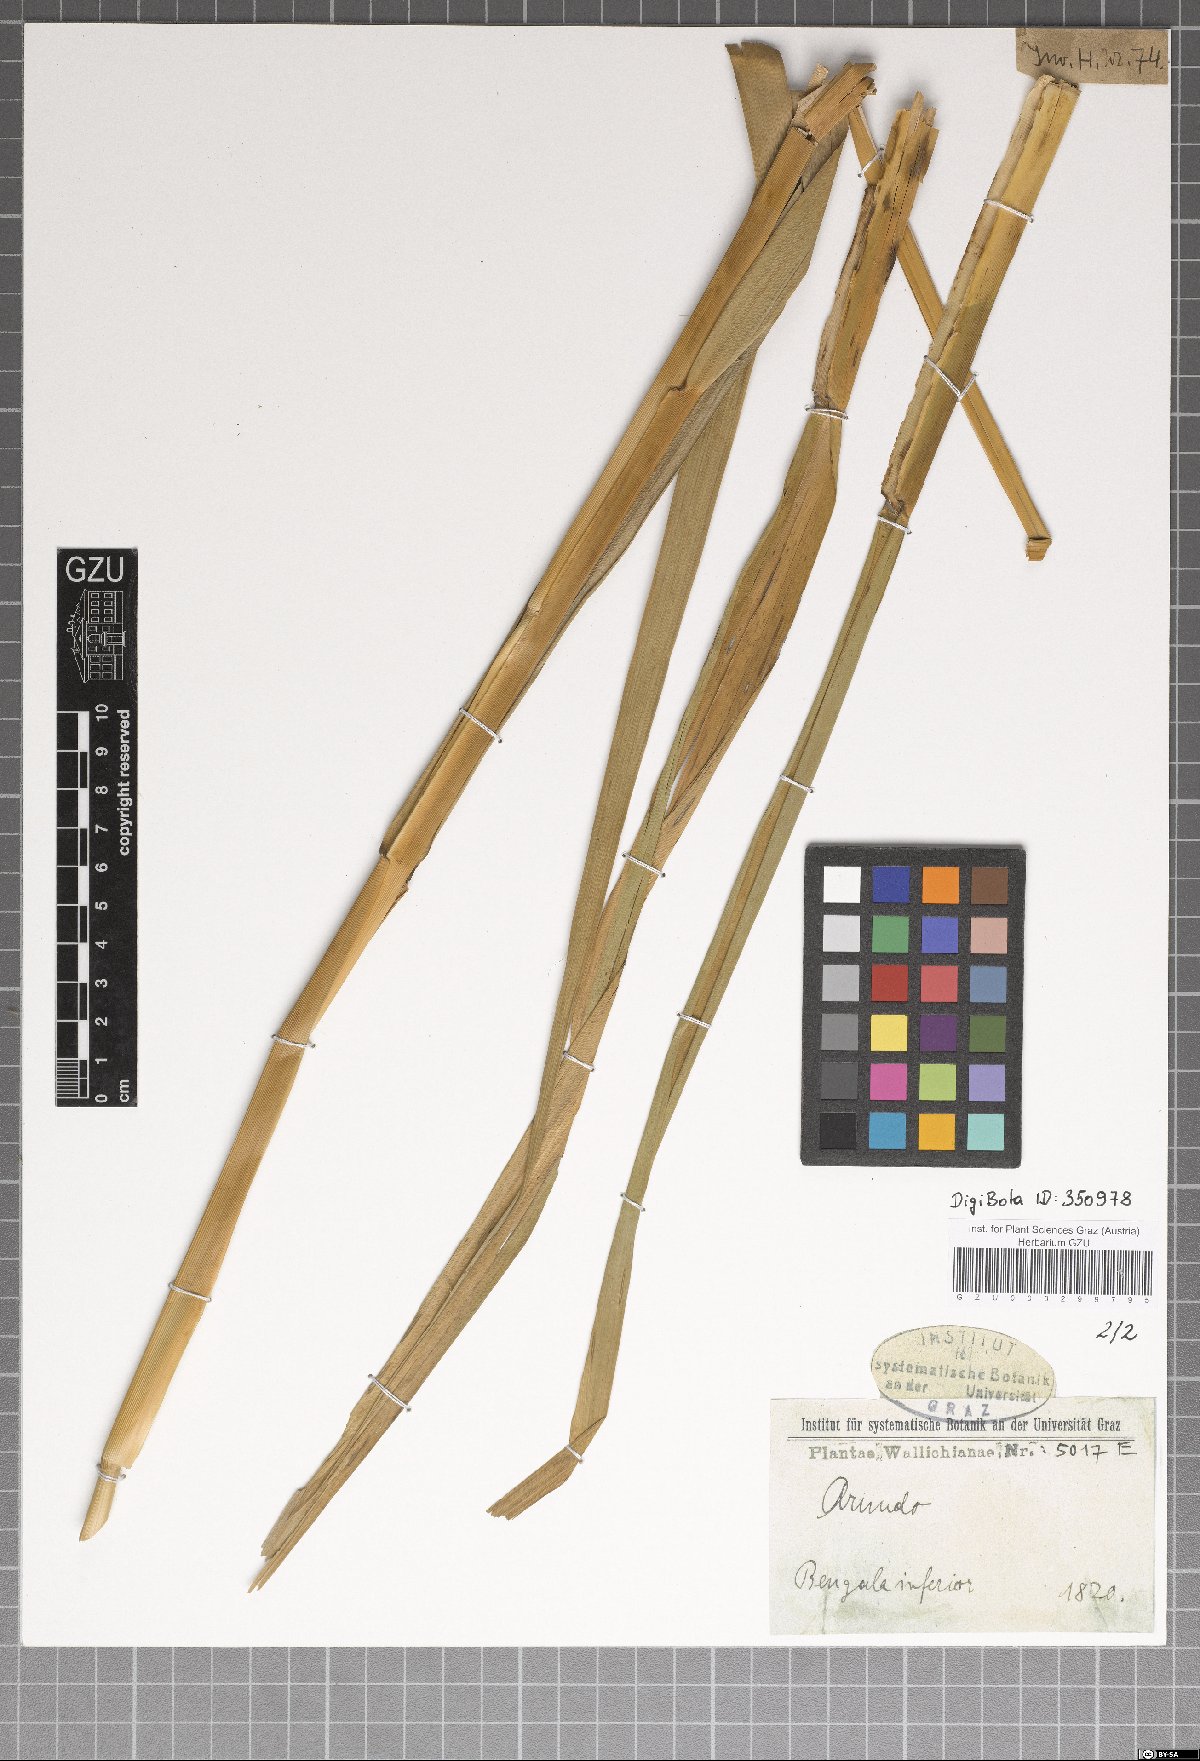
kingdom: Plantae
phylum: Tracheophyta
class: Liliopsida
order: Poales
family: Poaceae
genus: Arundo
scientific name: Arundo
